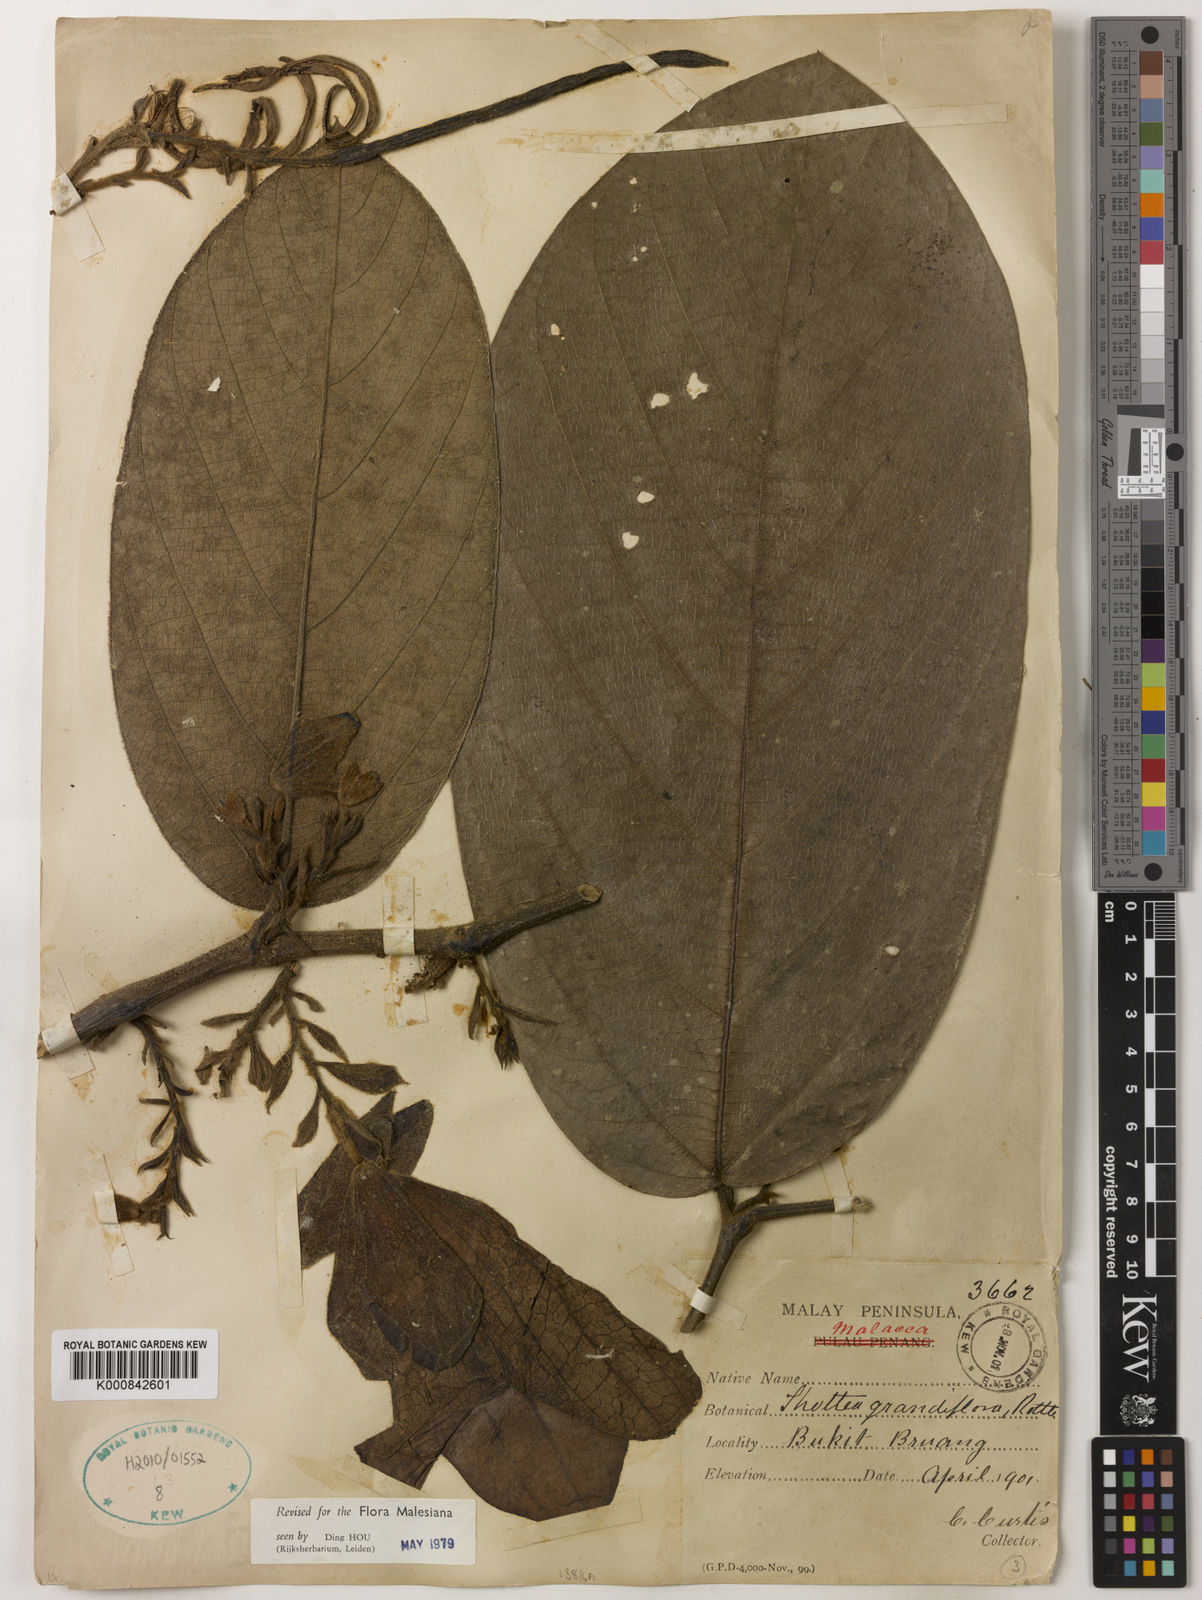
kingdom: Plantae
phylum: Tracheophyta
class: Magnoliopsida
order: Piperales
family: Aristolochiaceae
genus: Thottea
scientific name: Thottea grandiflora
